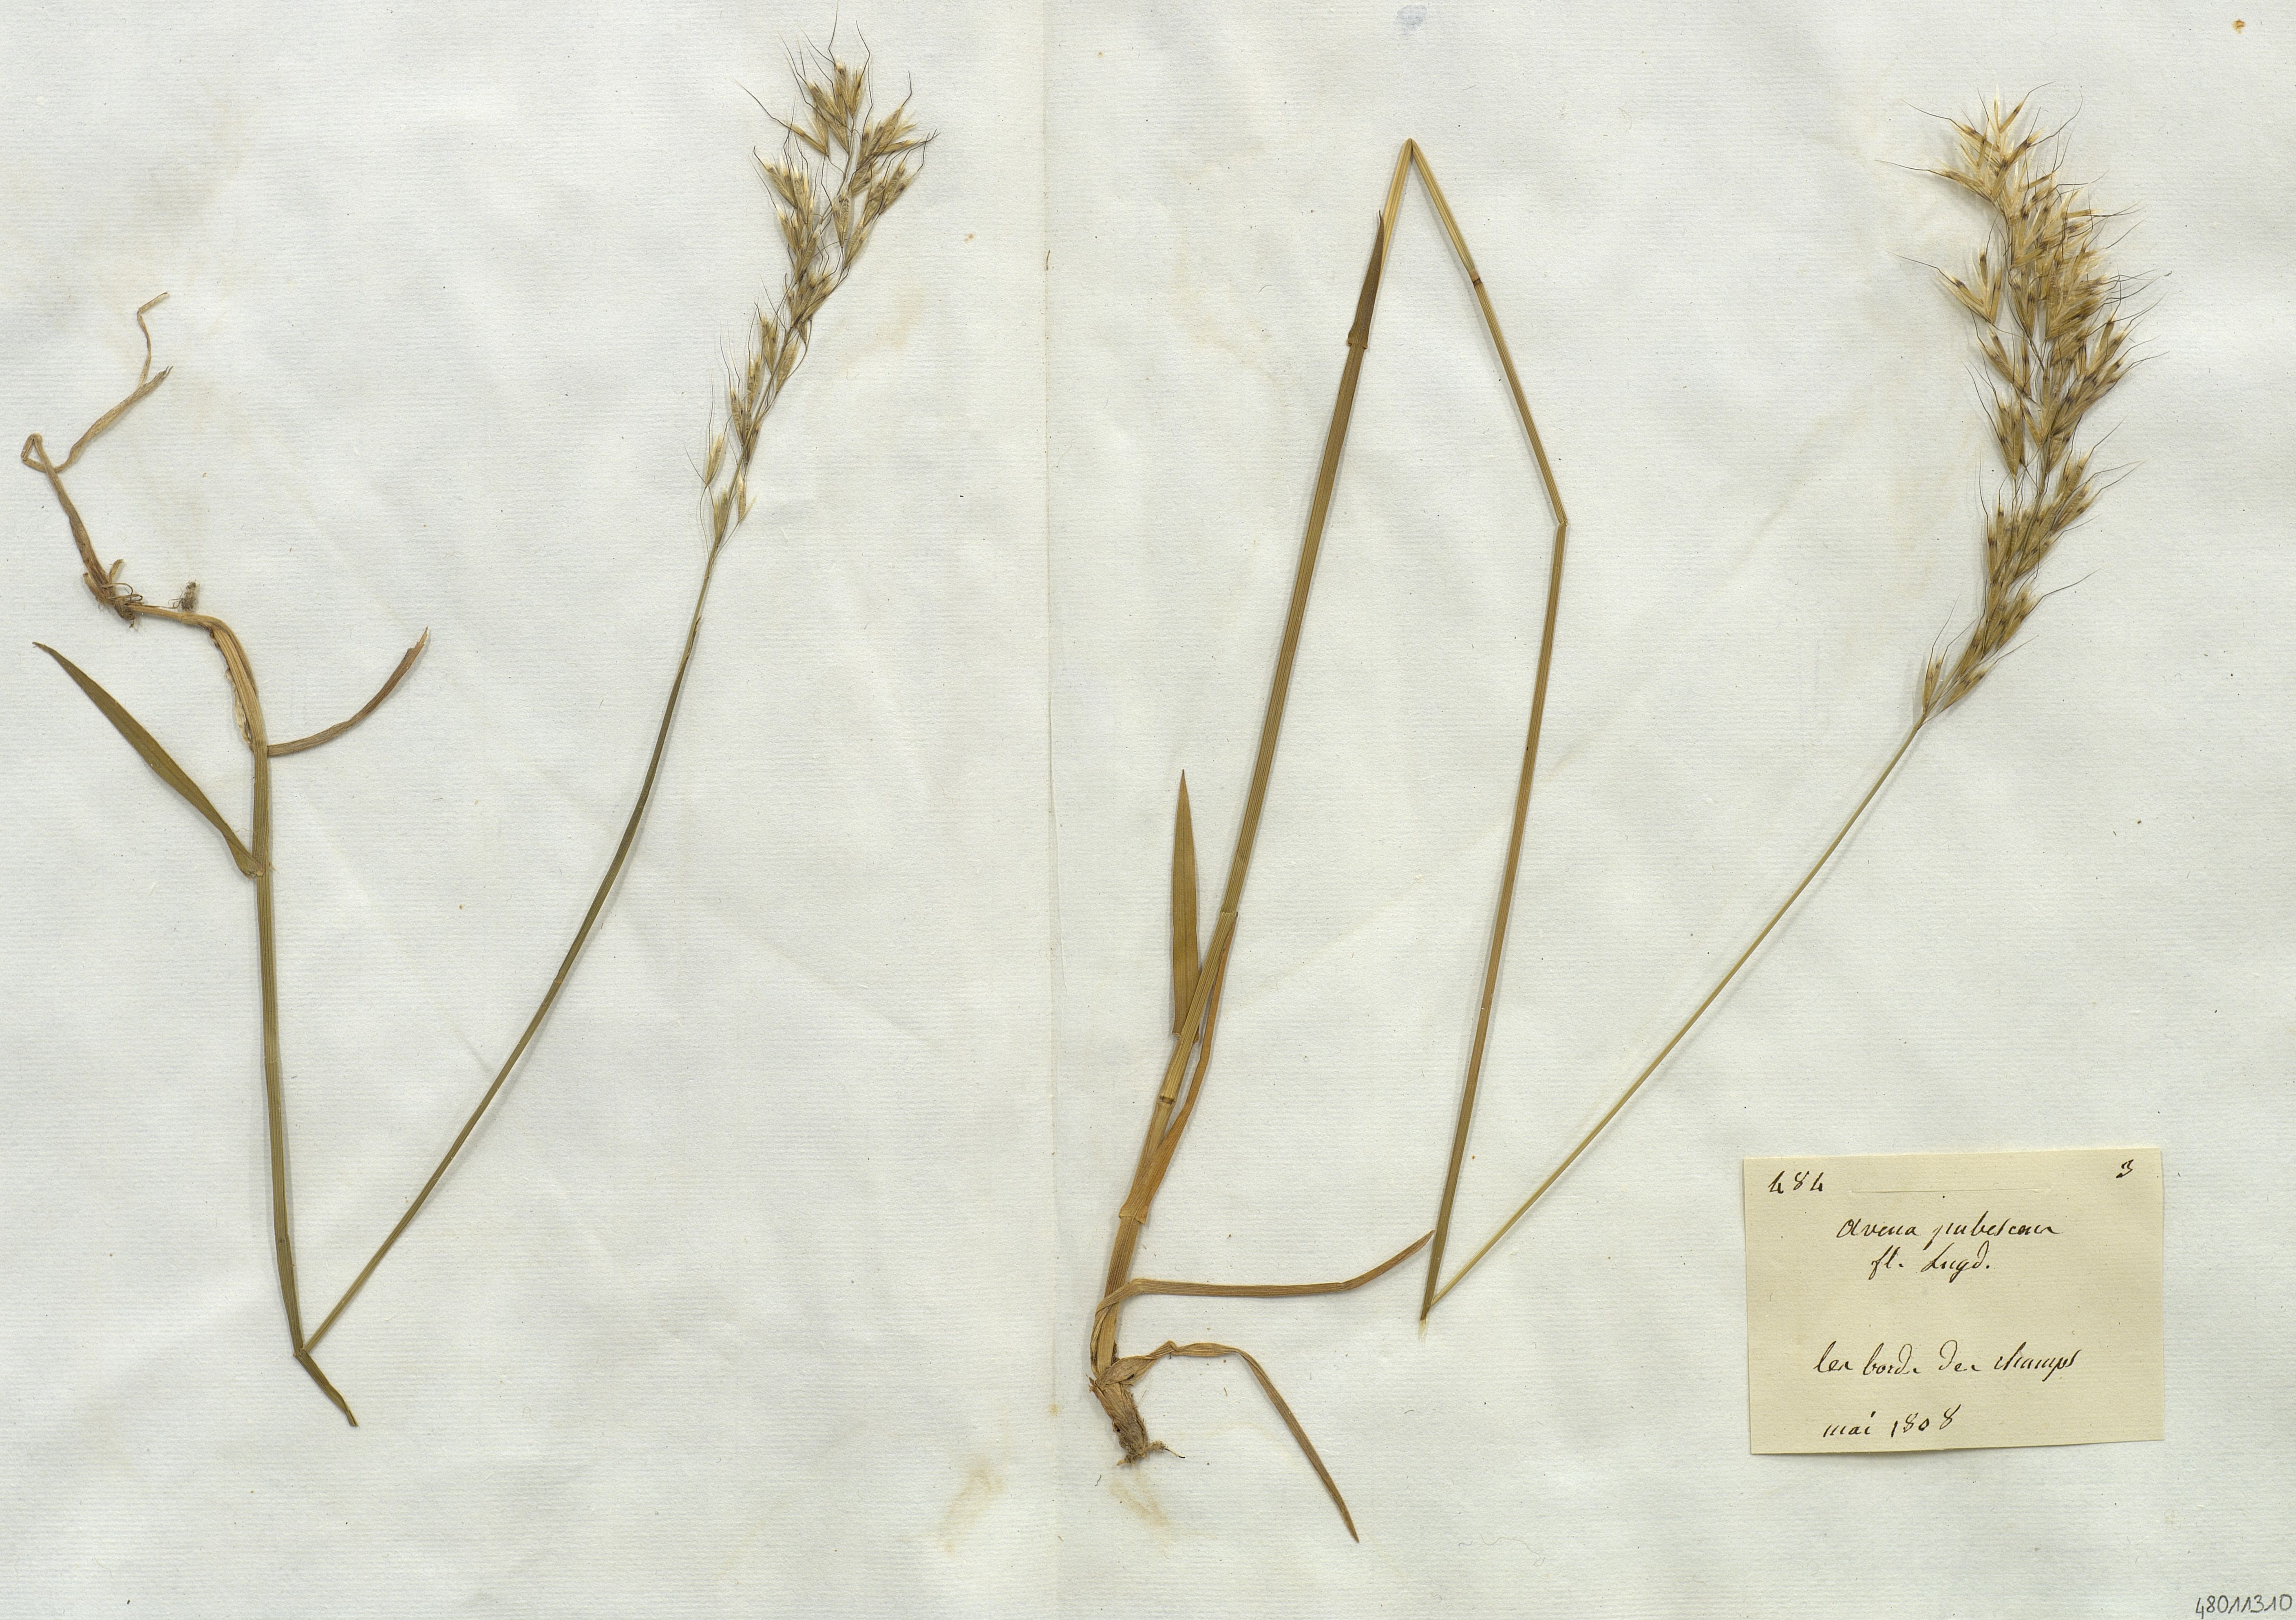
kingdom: Plantae
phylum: Tracheophyta
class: Liliopsida
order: Poales
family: Poaceae
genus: Avenula
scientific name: Avenula pubescens
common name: Downy alpine oatgrass
